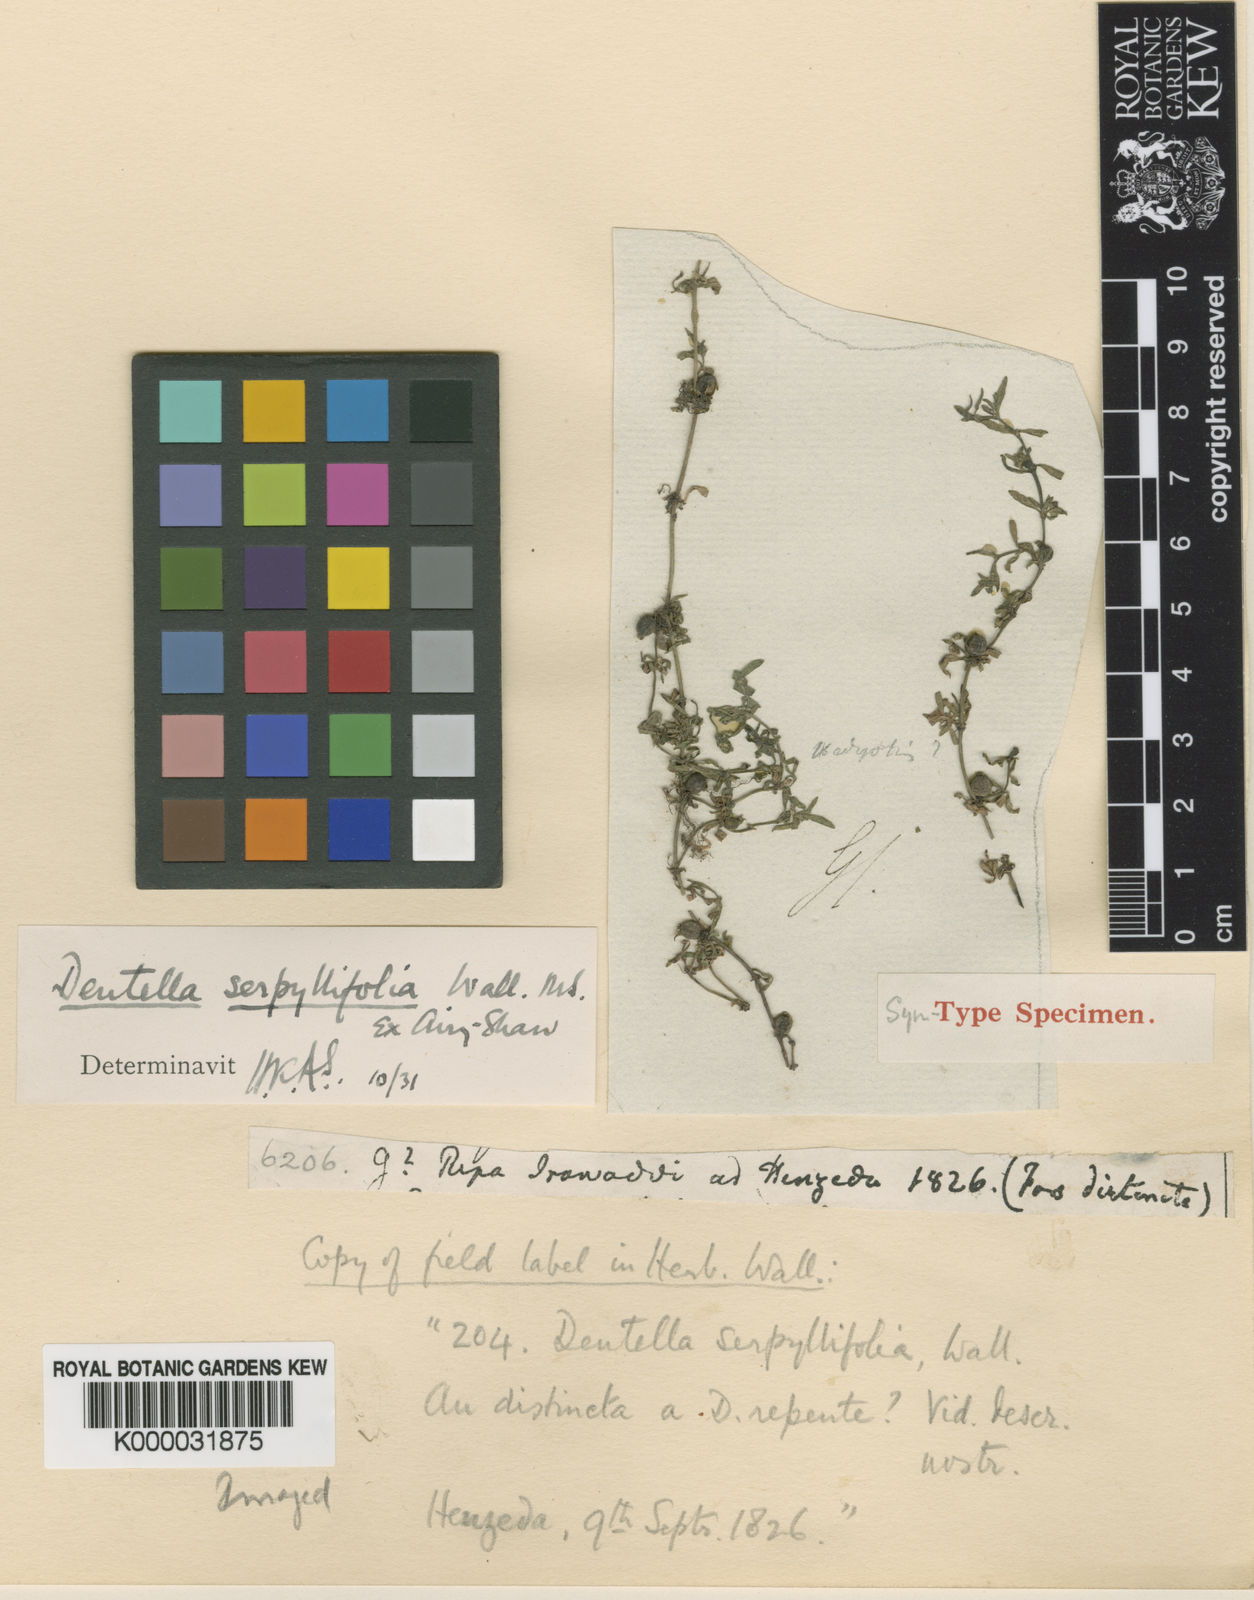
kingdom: Plantae
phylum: Tracheophyta
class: Magnoliopsida
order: Gentianales
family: Rubiaceae
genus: Dentella
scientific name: Dentella repens
